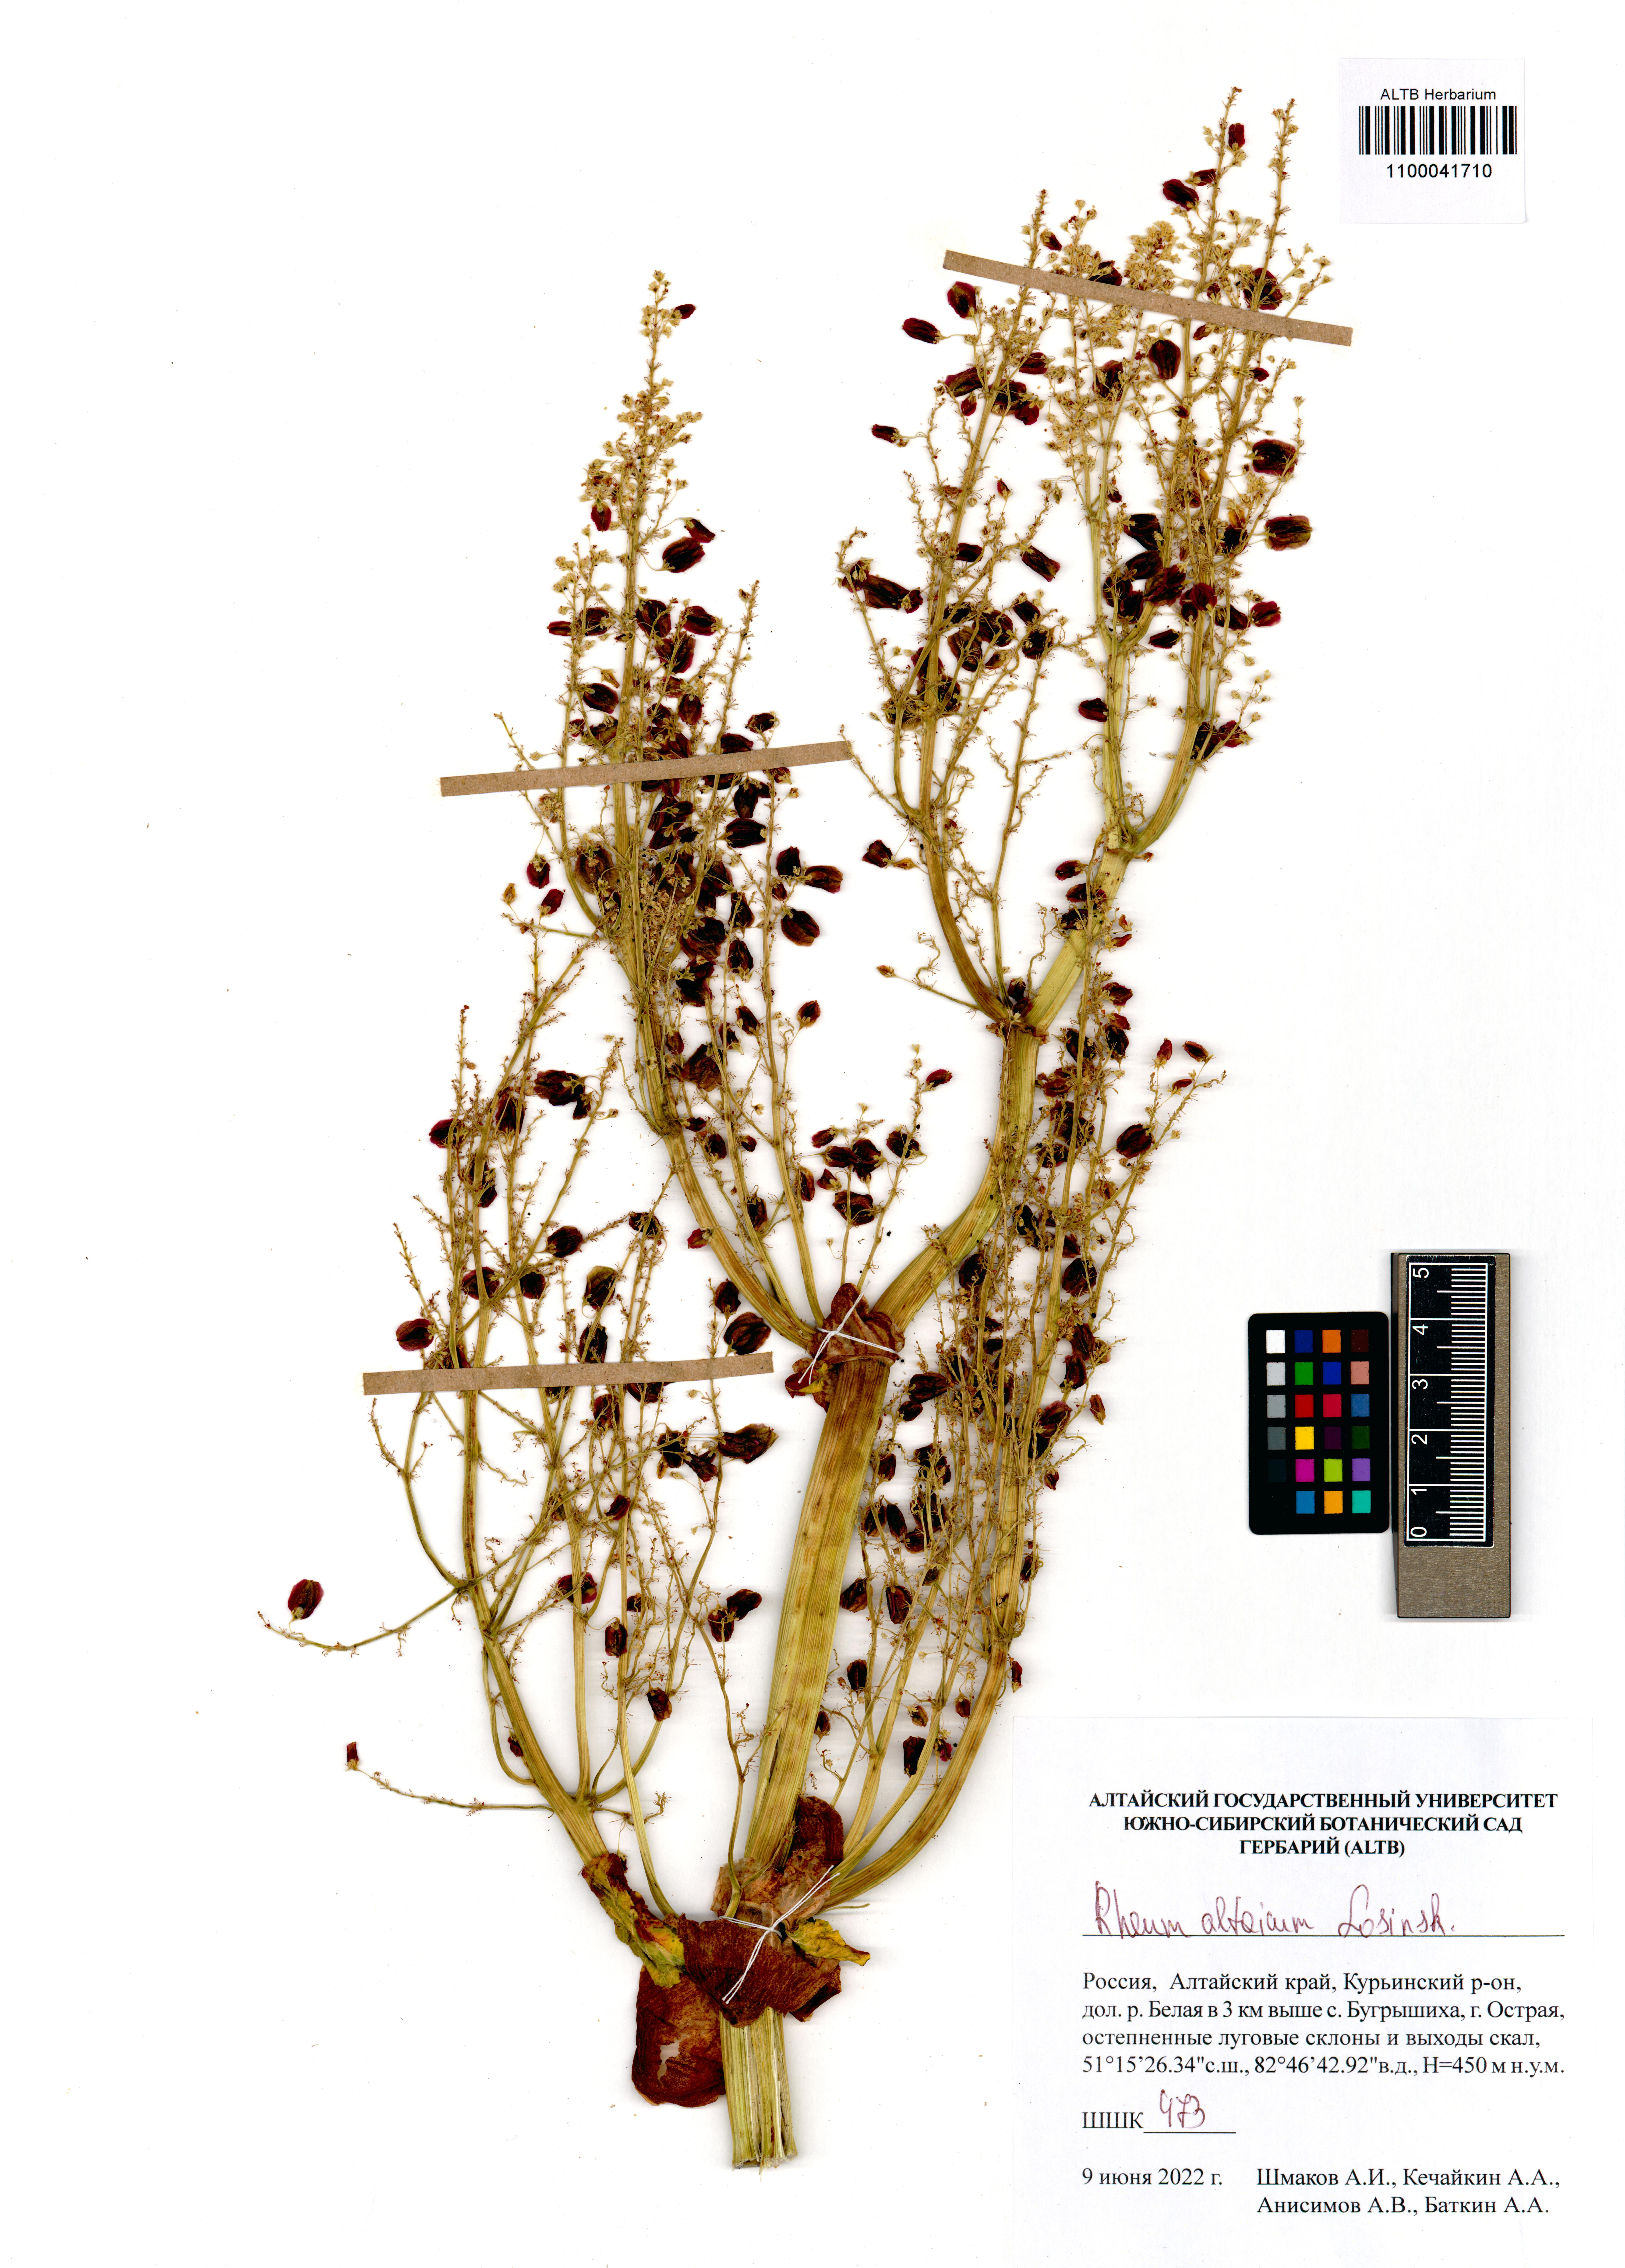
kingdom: Plantae
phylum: Tracheophyta
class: Magnoliopsida
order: Caryophyllales
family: Polygonaceae
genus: Rheum
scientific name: Rheum compactum
